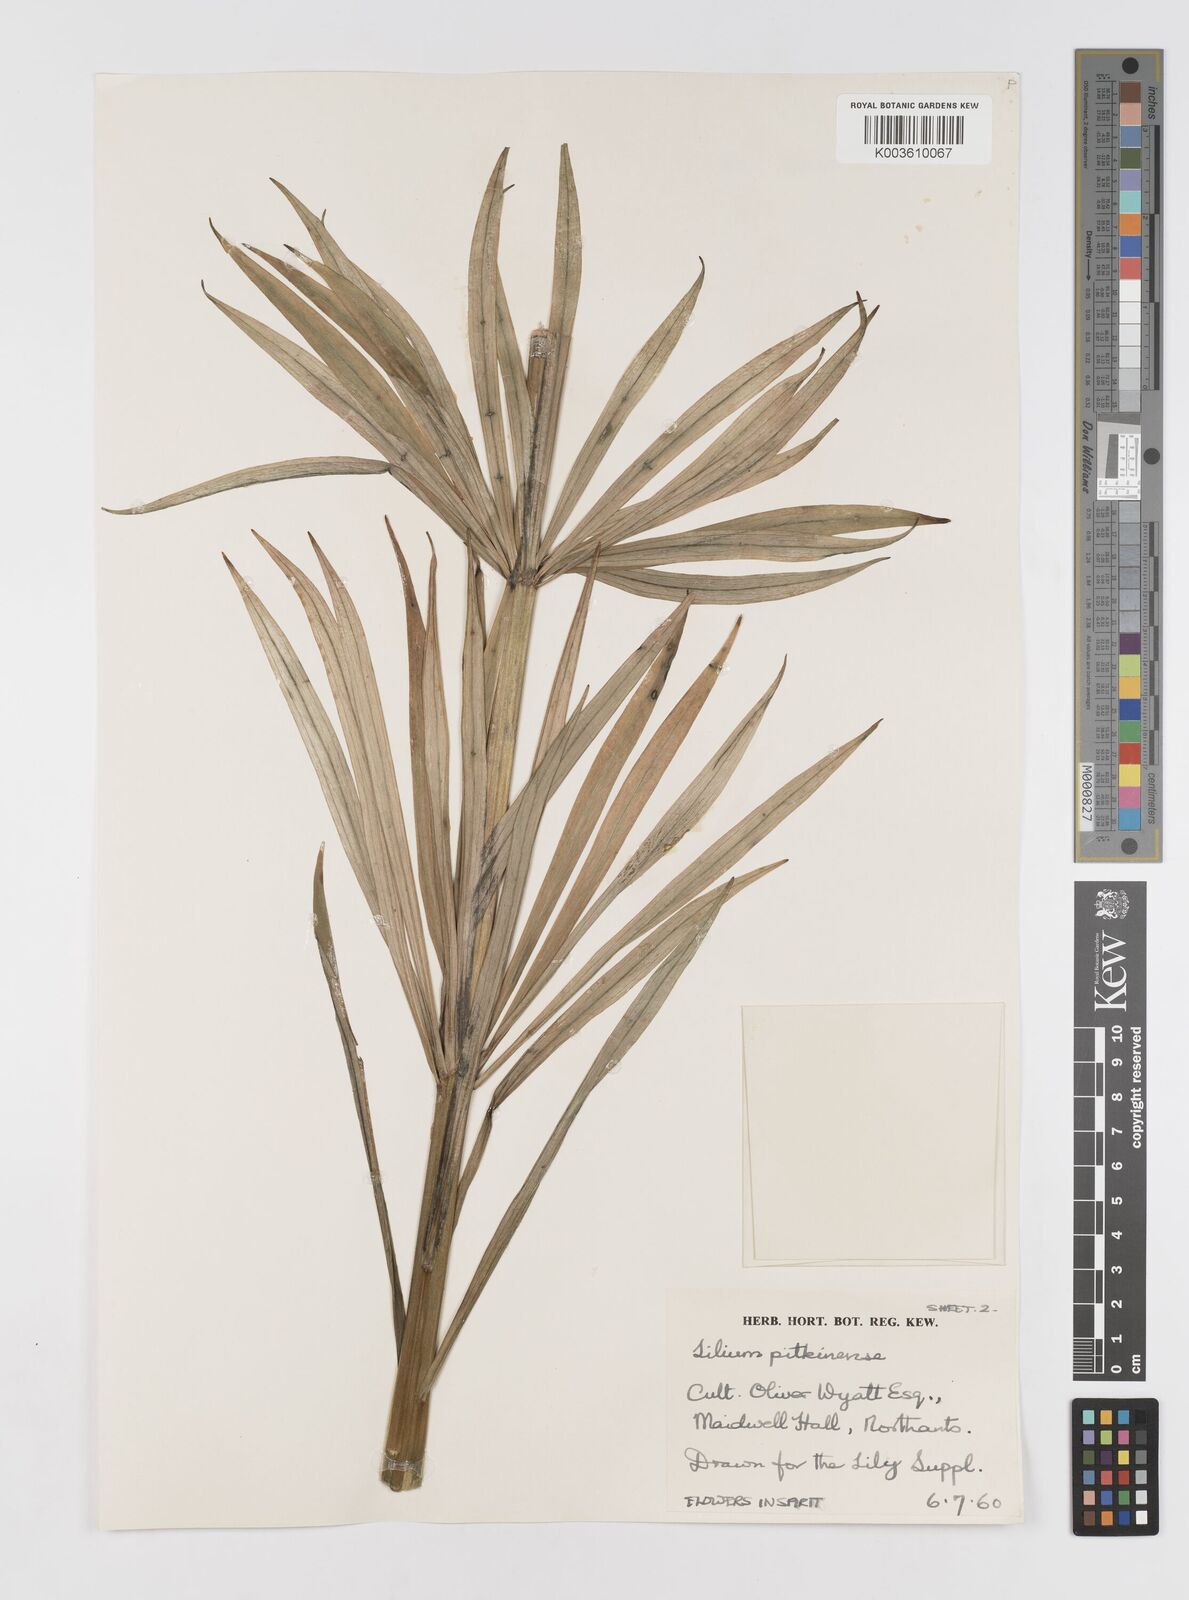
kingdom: Plantae
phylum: Tracheophyta
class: Liliopsida
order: Liliales
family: Liliaceae
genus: Lilium
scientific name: Lilium pardalinum
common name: Panther lily
